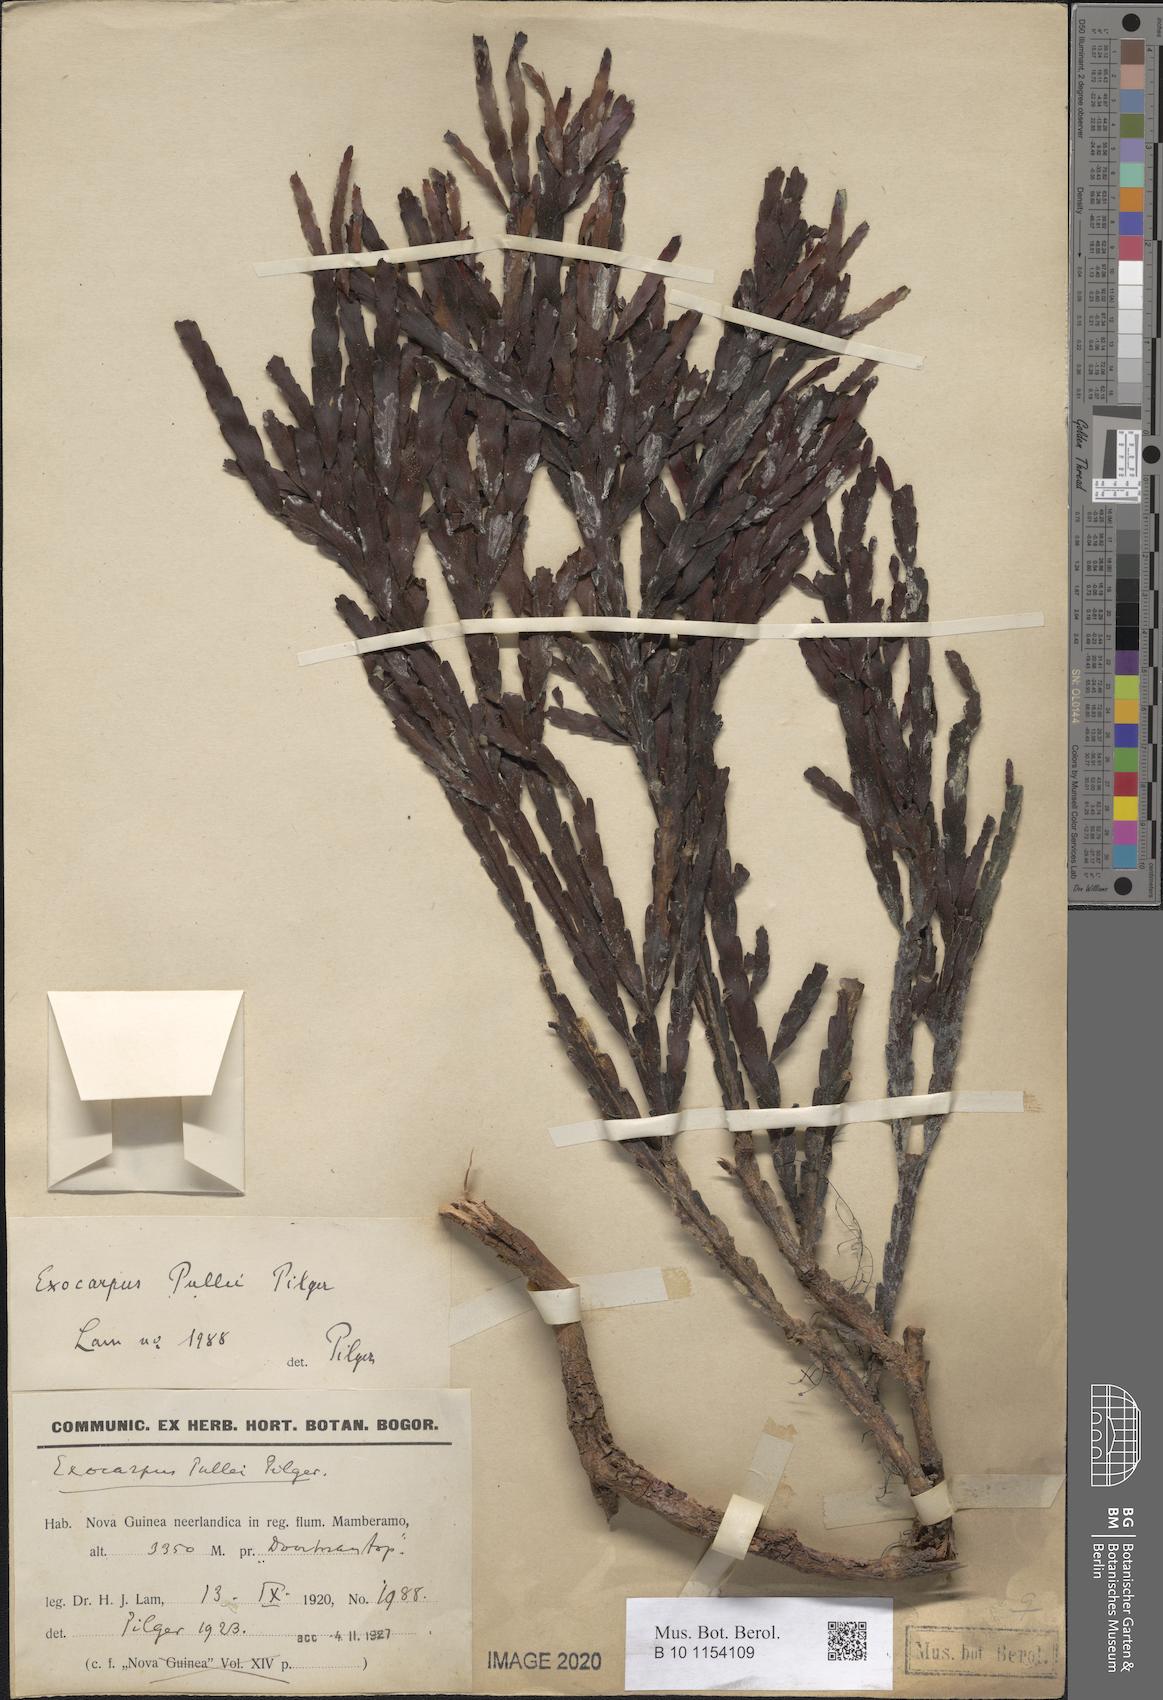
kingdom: Plantae
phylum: Tracheophyta
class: Magnoliopsida
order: Santalales
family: Santalaceae
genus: Exocarpos
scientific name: Exocarpos pullei
